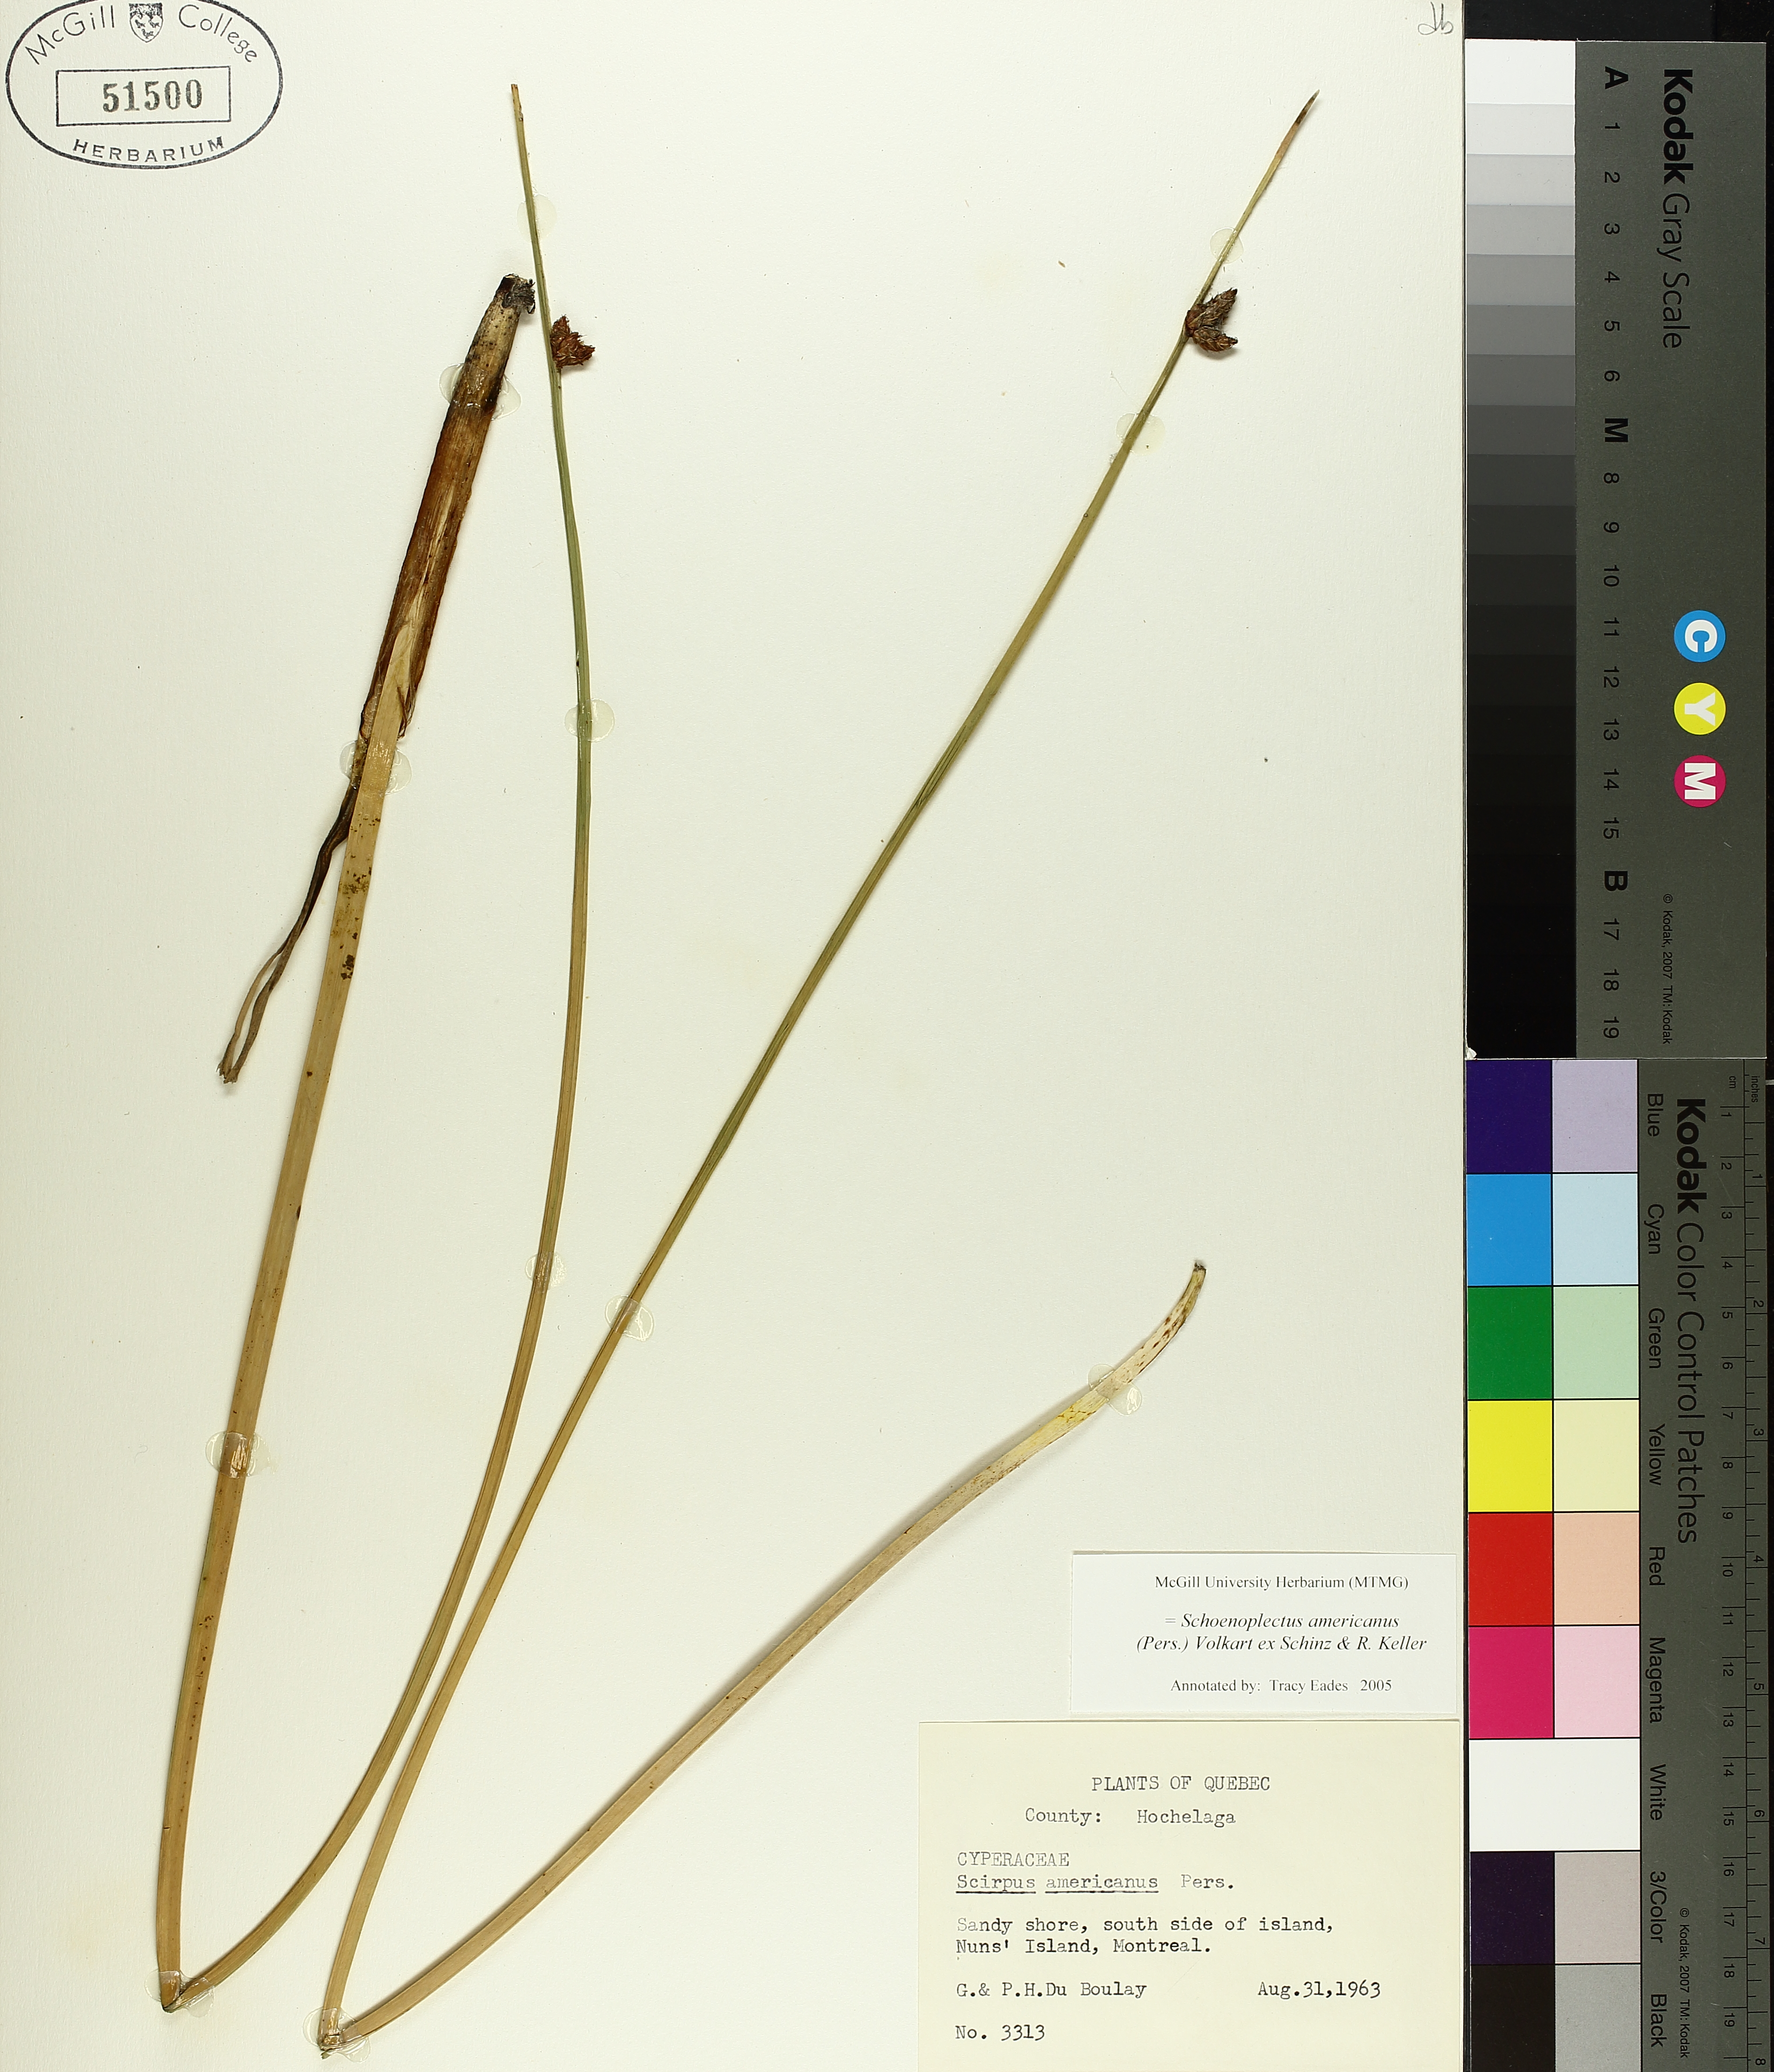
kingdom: Plantae
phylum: Tracheophyta
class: Liliopsida
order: Poales
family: Cyperaceae
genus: Schoenoplectus
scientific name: Schoenoplectus americanus
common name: American three-square bulrush
